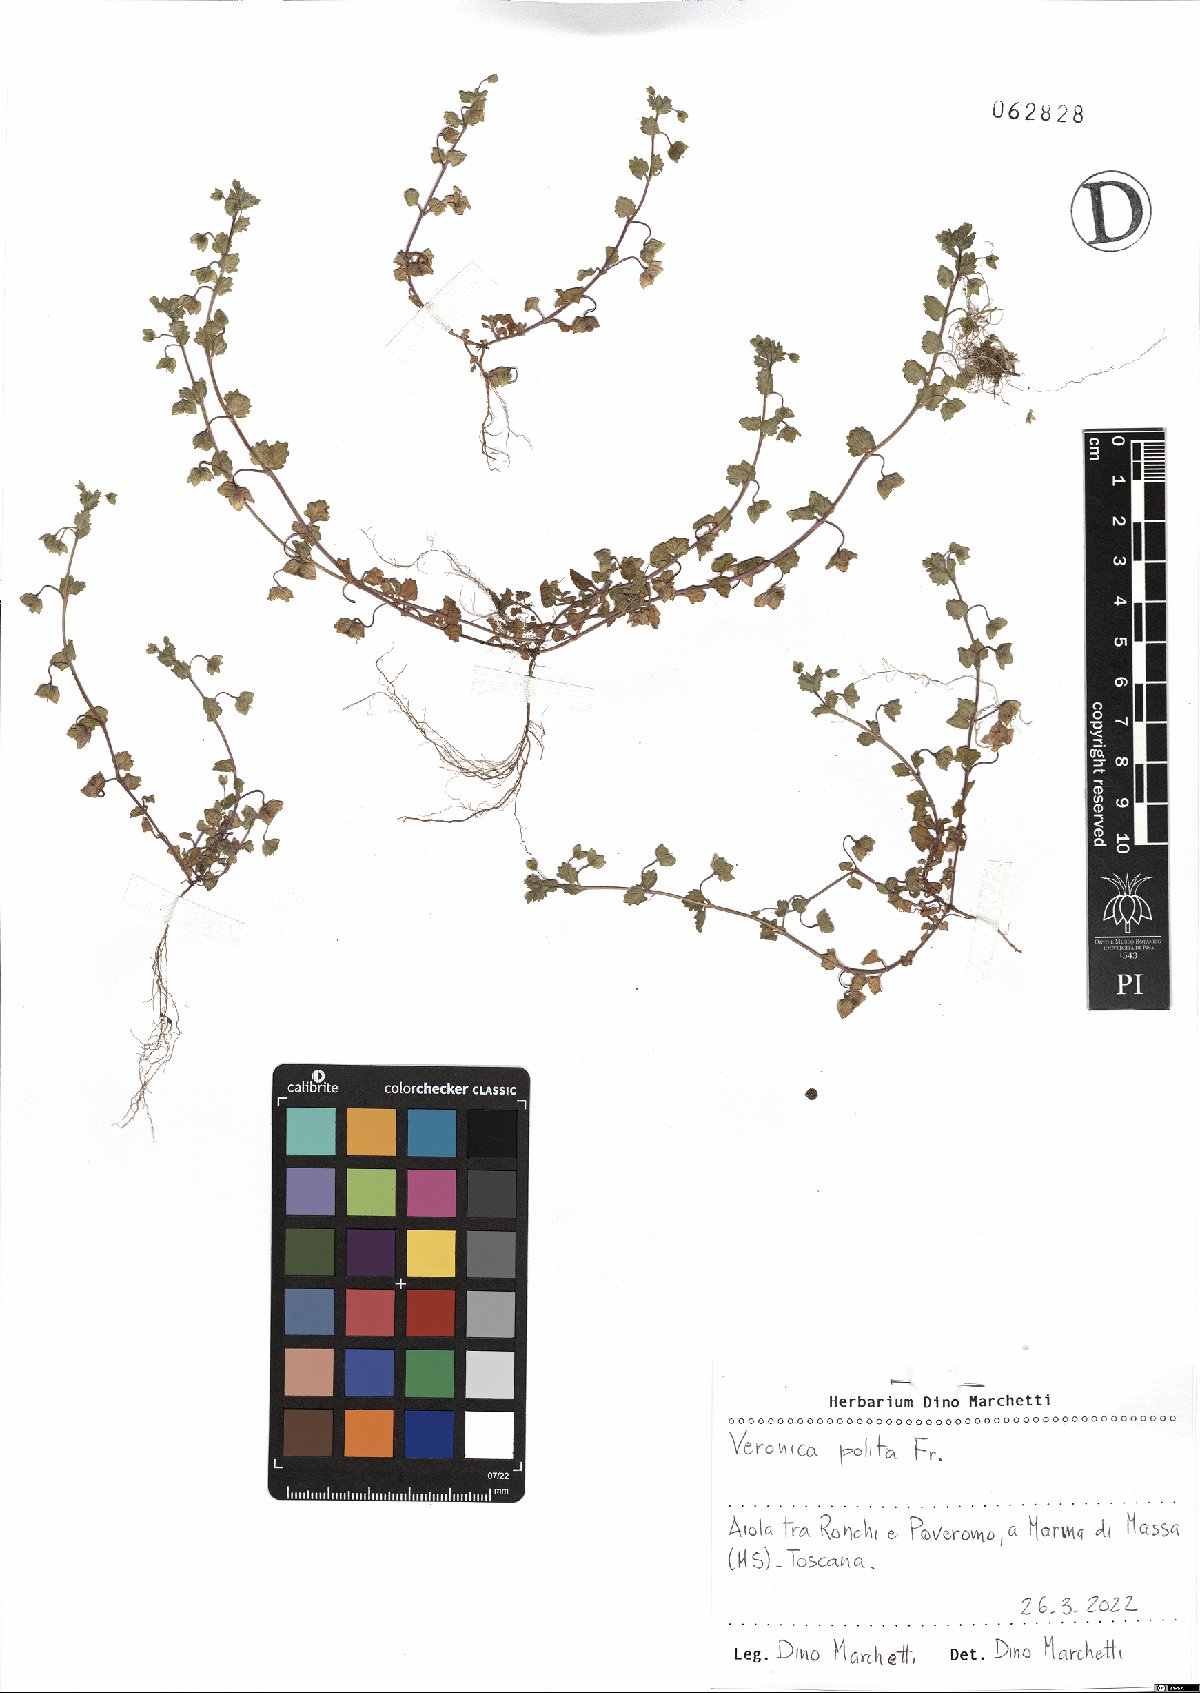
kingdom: Plantae
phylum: Tracheophyta
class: Magnoliopsida
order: Lamiales
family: Plantaginaceae
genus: Veronica
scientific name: Veronica polita
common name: Grey field-speedwell
